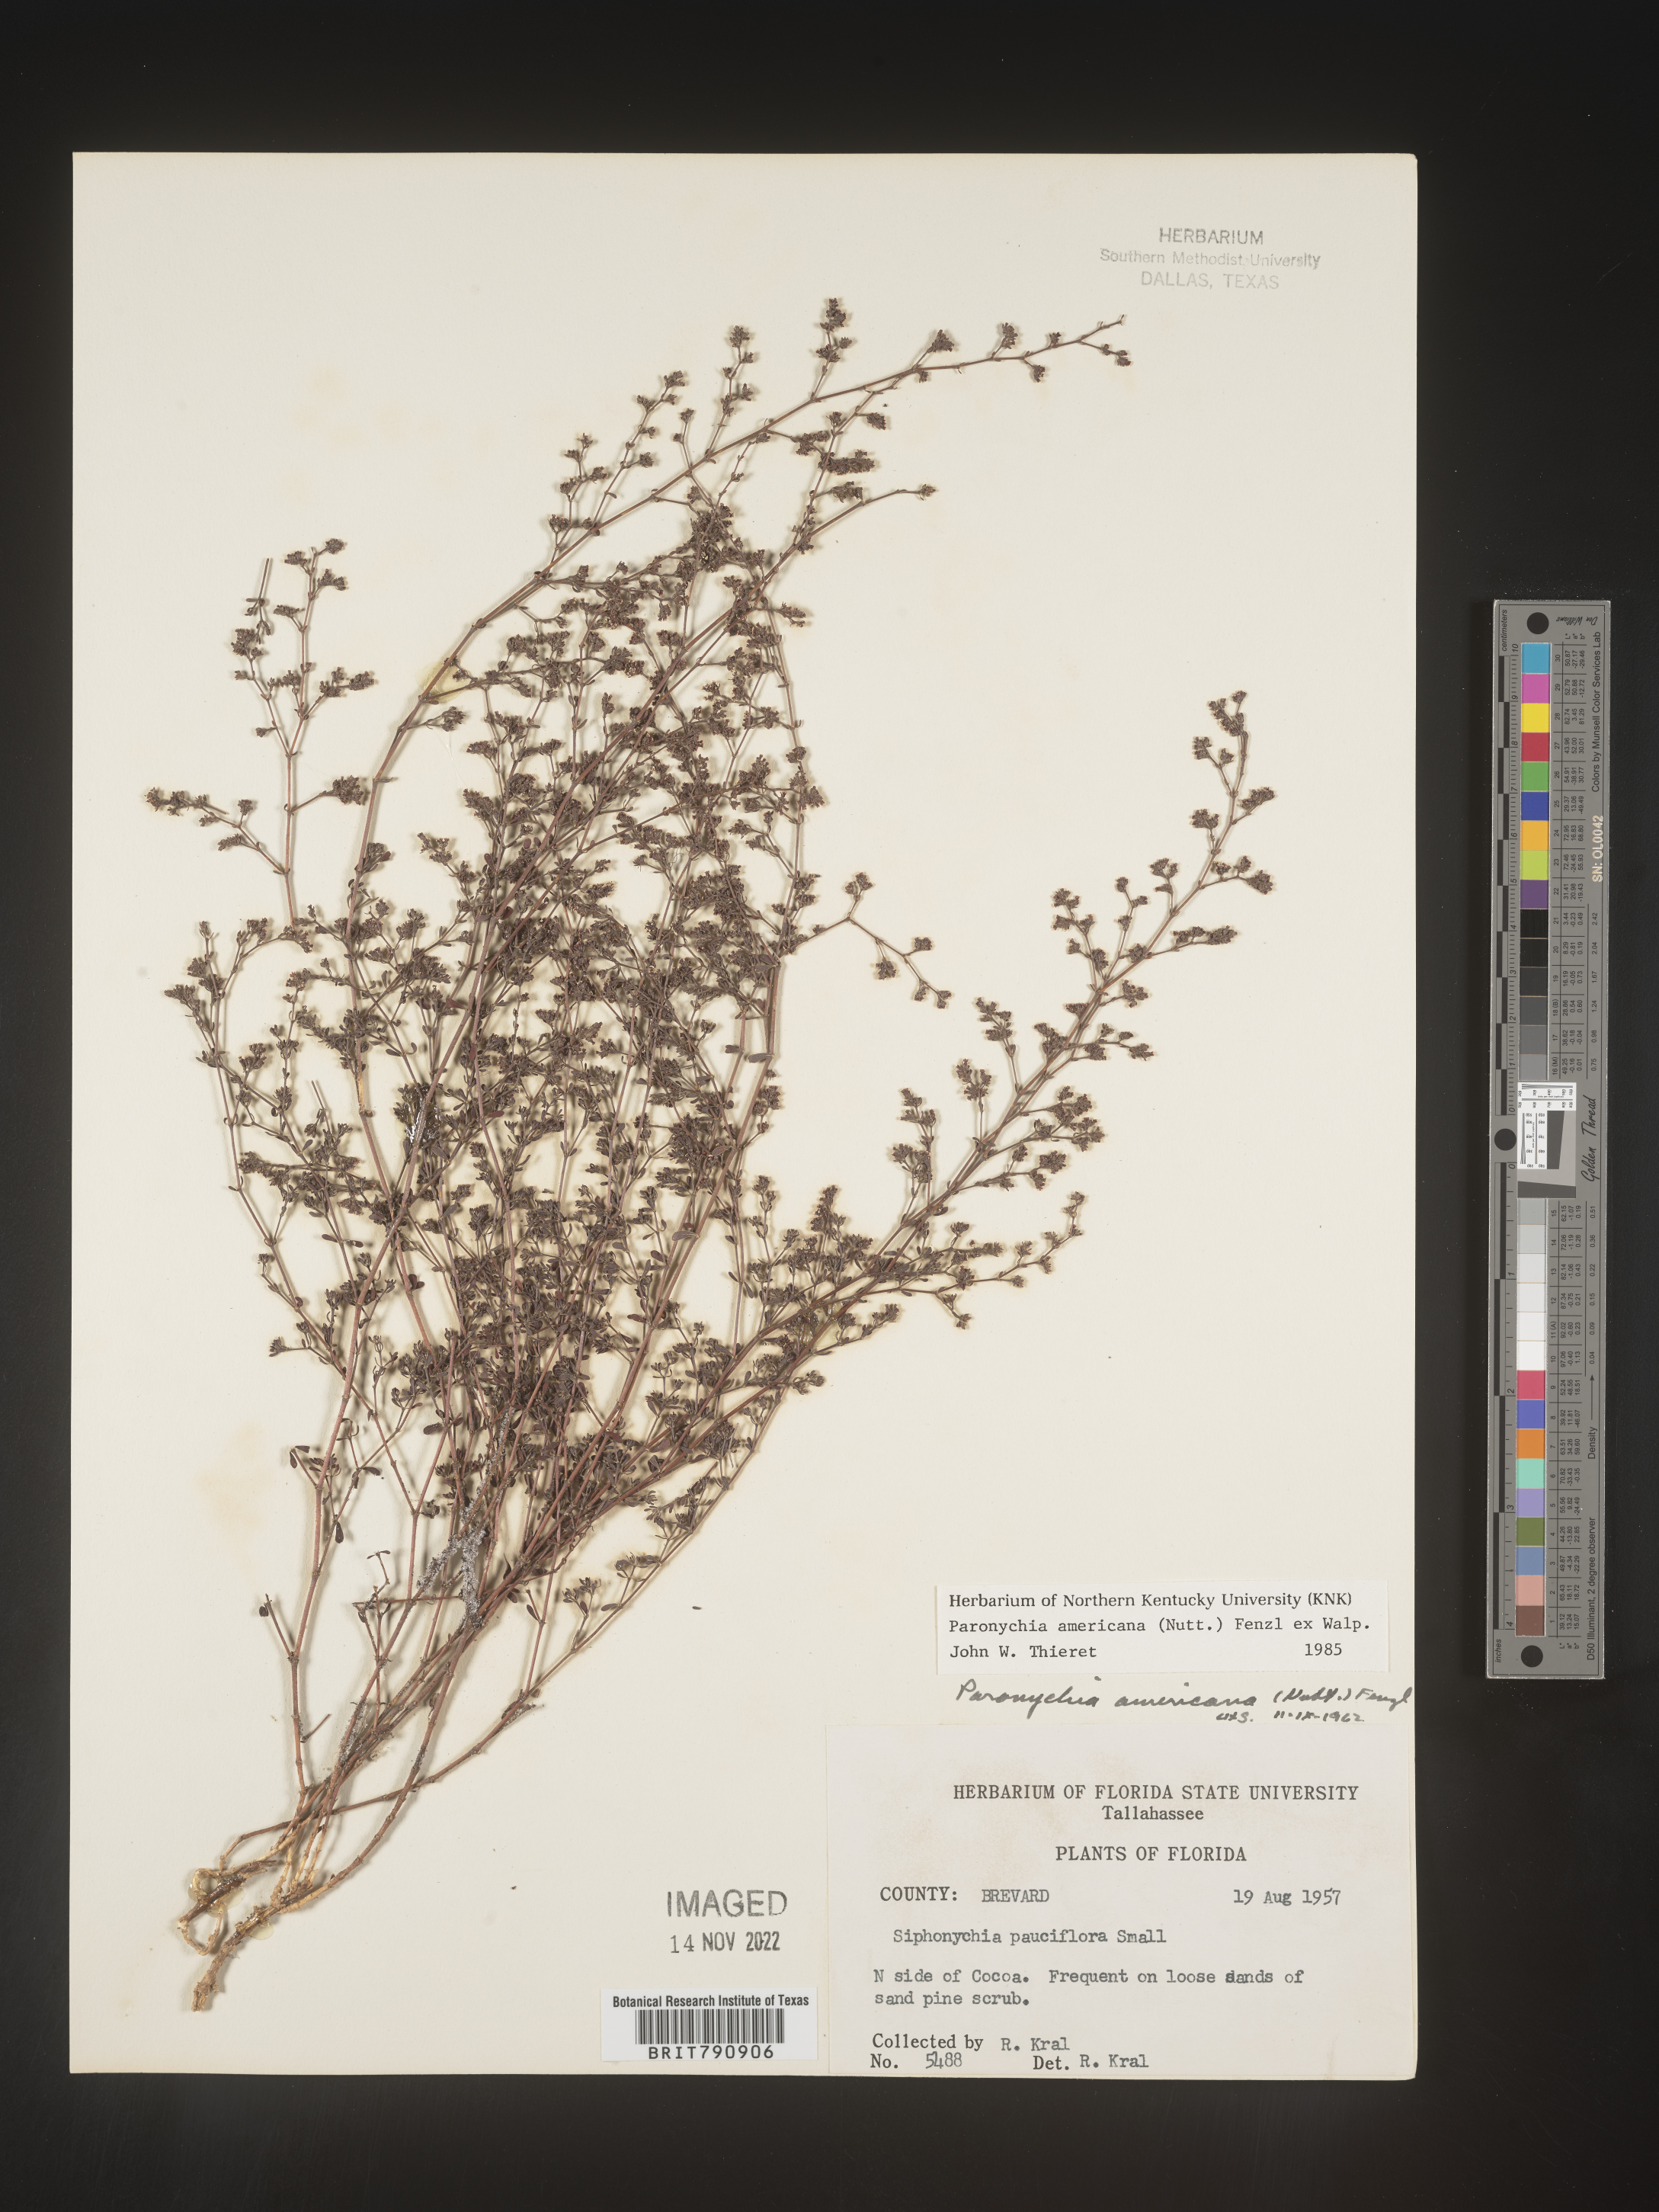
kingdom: Plantae
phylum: Tracheophyta
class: Magnoliopsida
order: Caryophyllales
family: Caryophyllaceae
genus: Paronychia
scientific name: Paronychia americana
